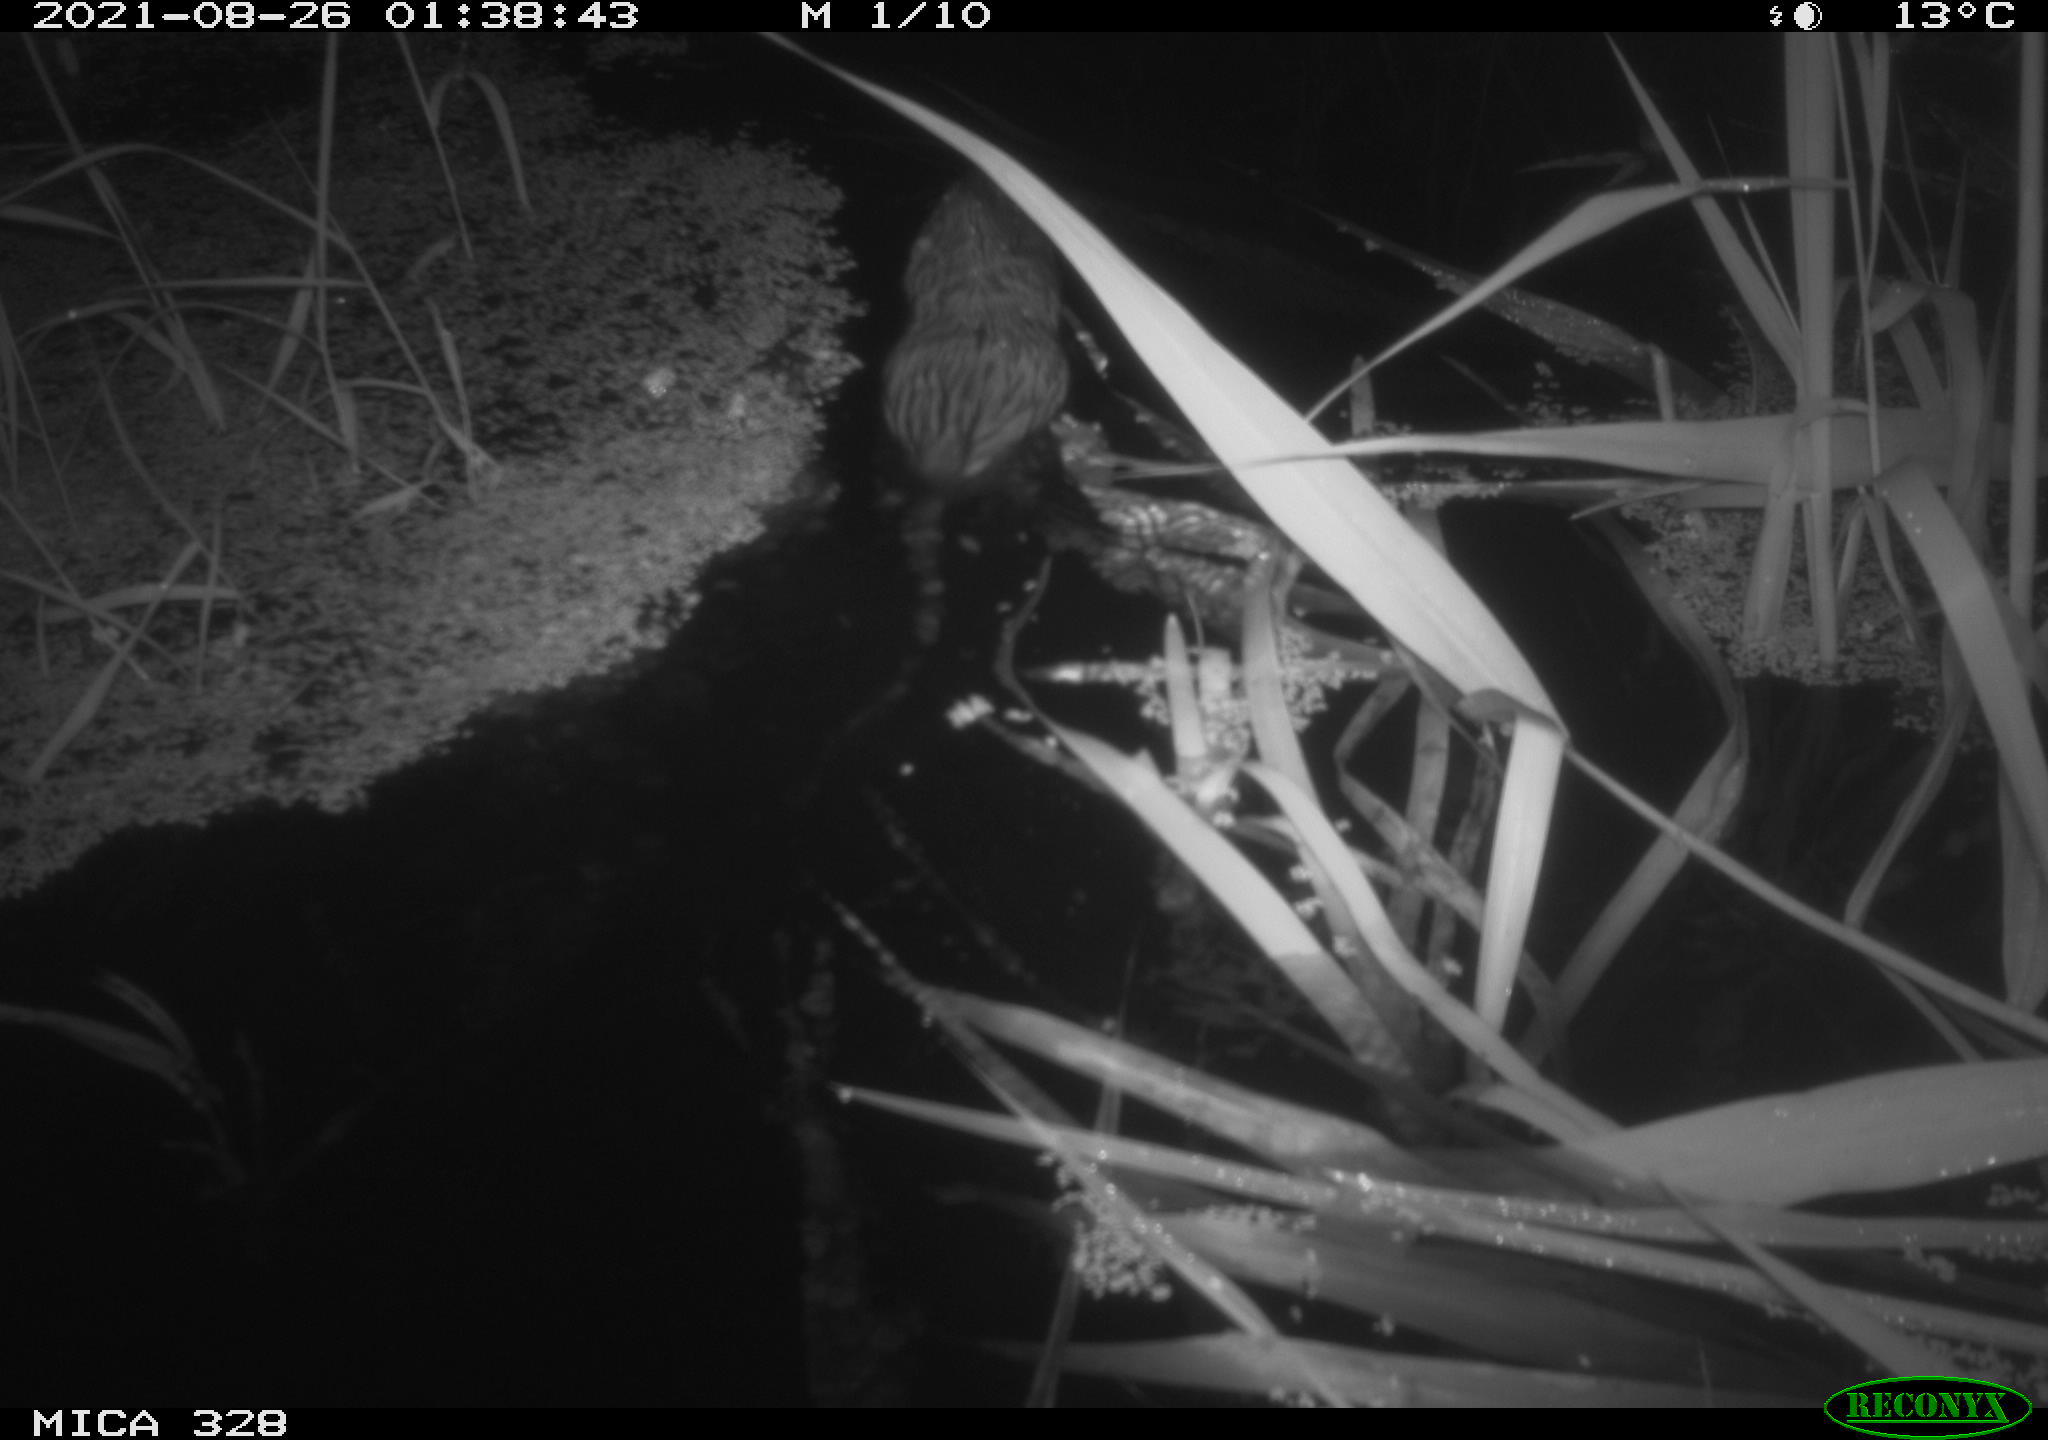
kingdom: Animalia
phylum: Chordata
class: Mammalia
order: Rodentia
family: Cricetidae
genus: Ondatra
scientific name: Ondatra zibethicus
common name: Muskrat
